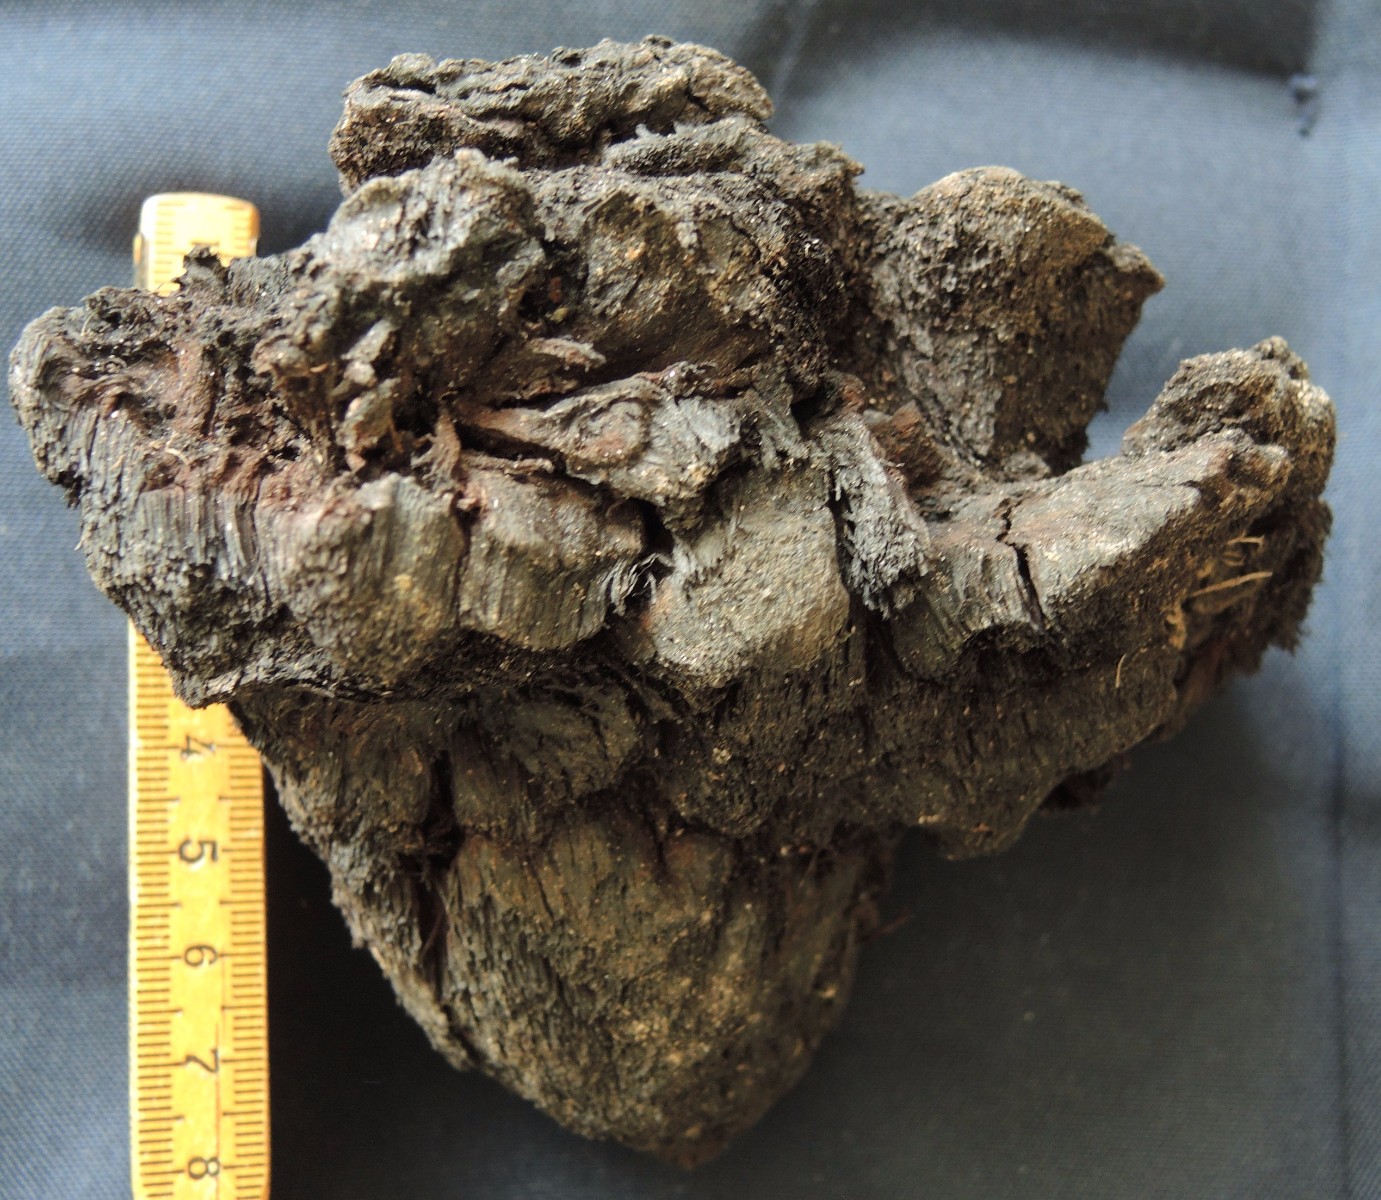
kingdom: Fungi
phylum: Basidiomycota
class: Agaricomycetes
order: Hymenochaetales
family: Hymenochaetaceae
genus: Inonotus
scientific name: Inonotus hispidus
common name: børstehåret spejlporesvamp
